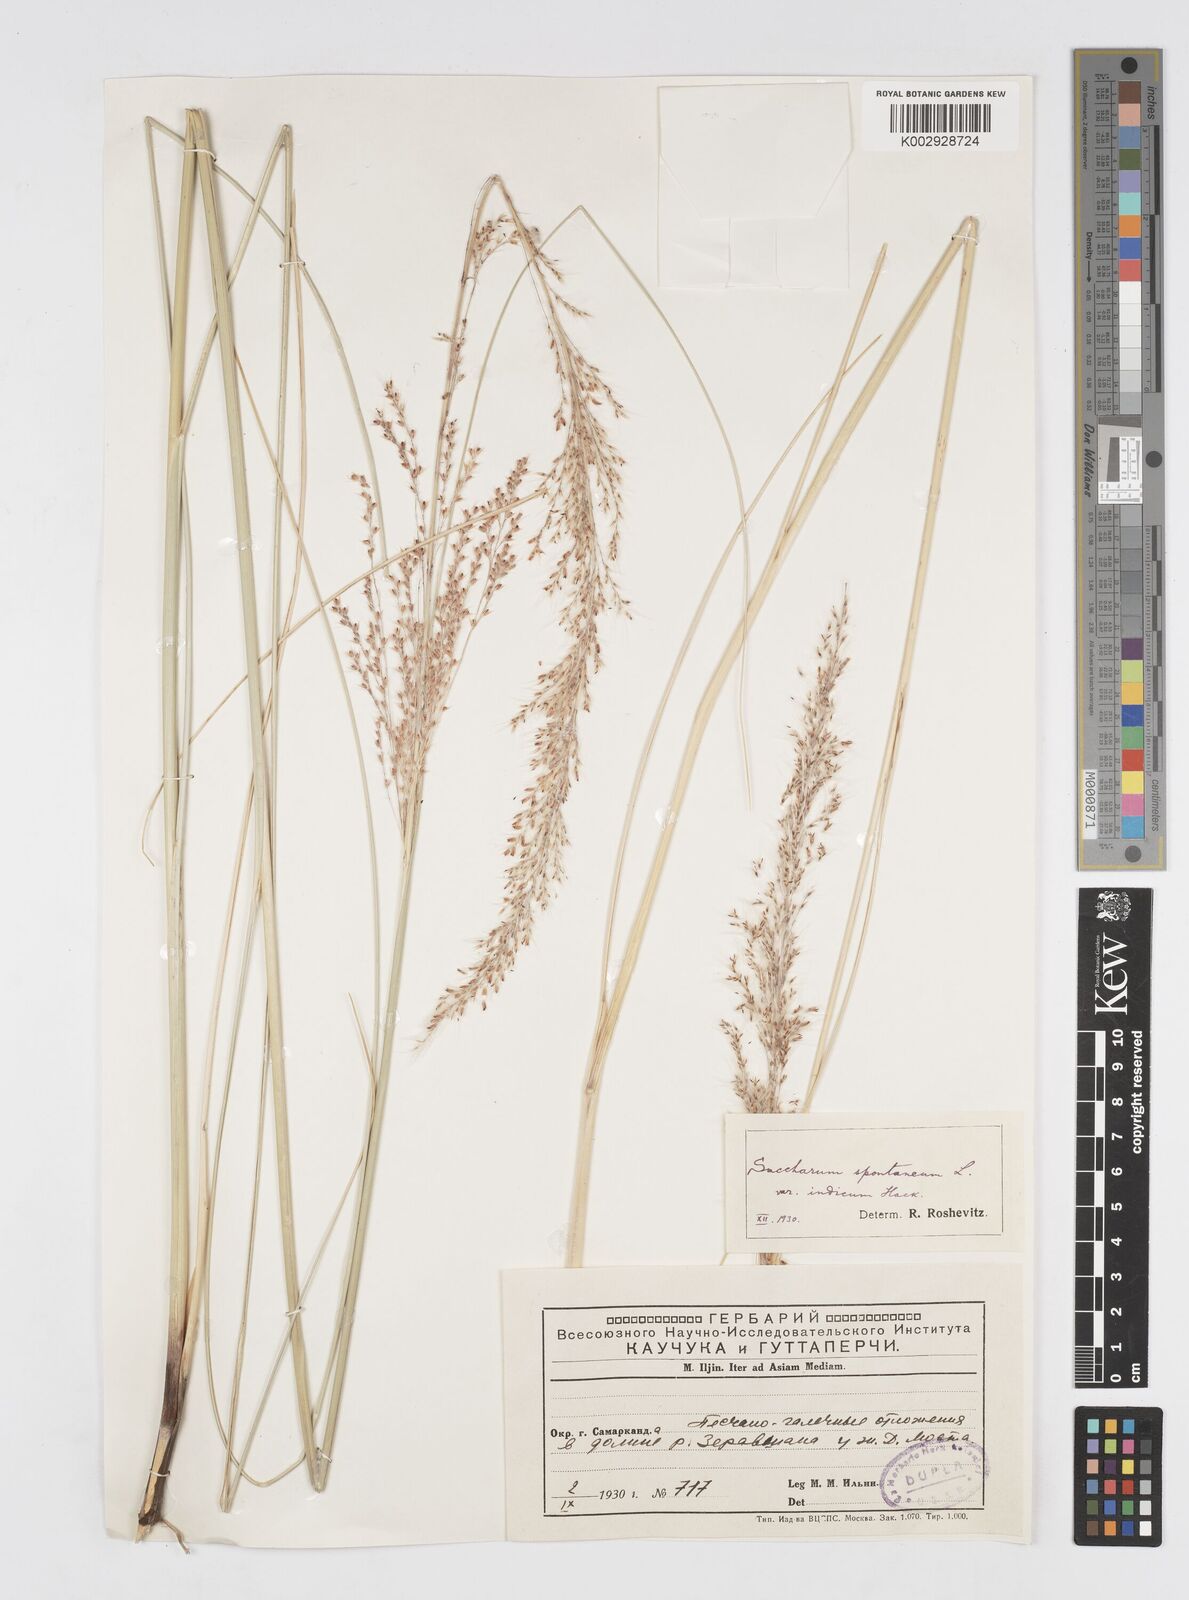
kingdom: Plantae
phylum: Tracheophyta
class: Liliopsida
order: Poales
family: Poaceae
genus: Saccharum
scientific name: Saccharum spontaneum
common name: Wild sugarcane
